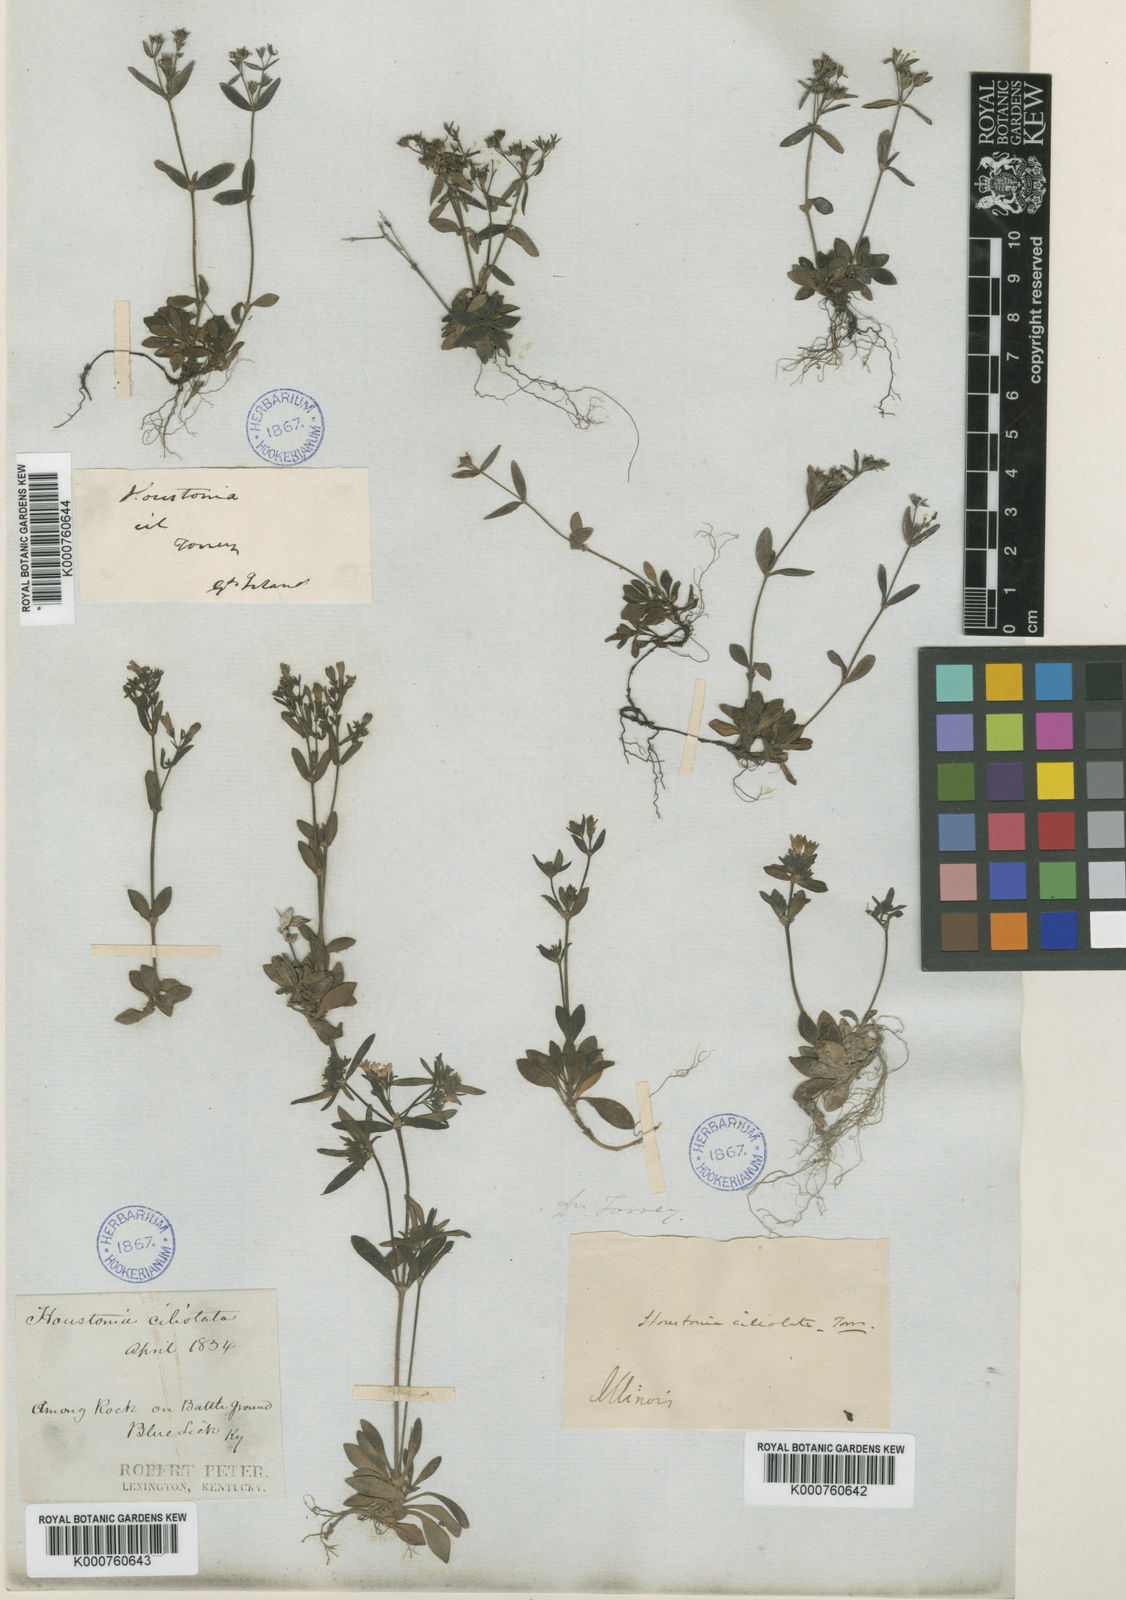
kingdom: Plantae
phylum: Tracheophyta
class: Magnoliopsida
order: Gentianales
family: Rubiaceae
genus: Houstonia
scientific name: Houstonia
